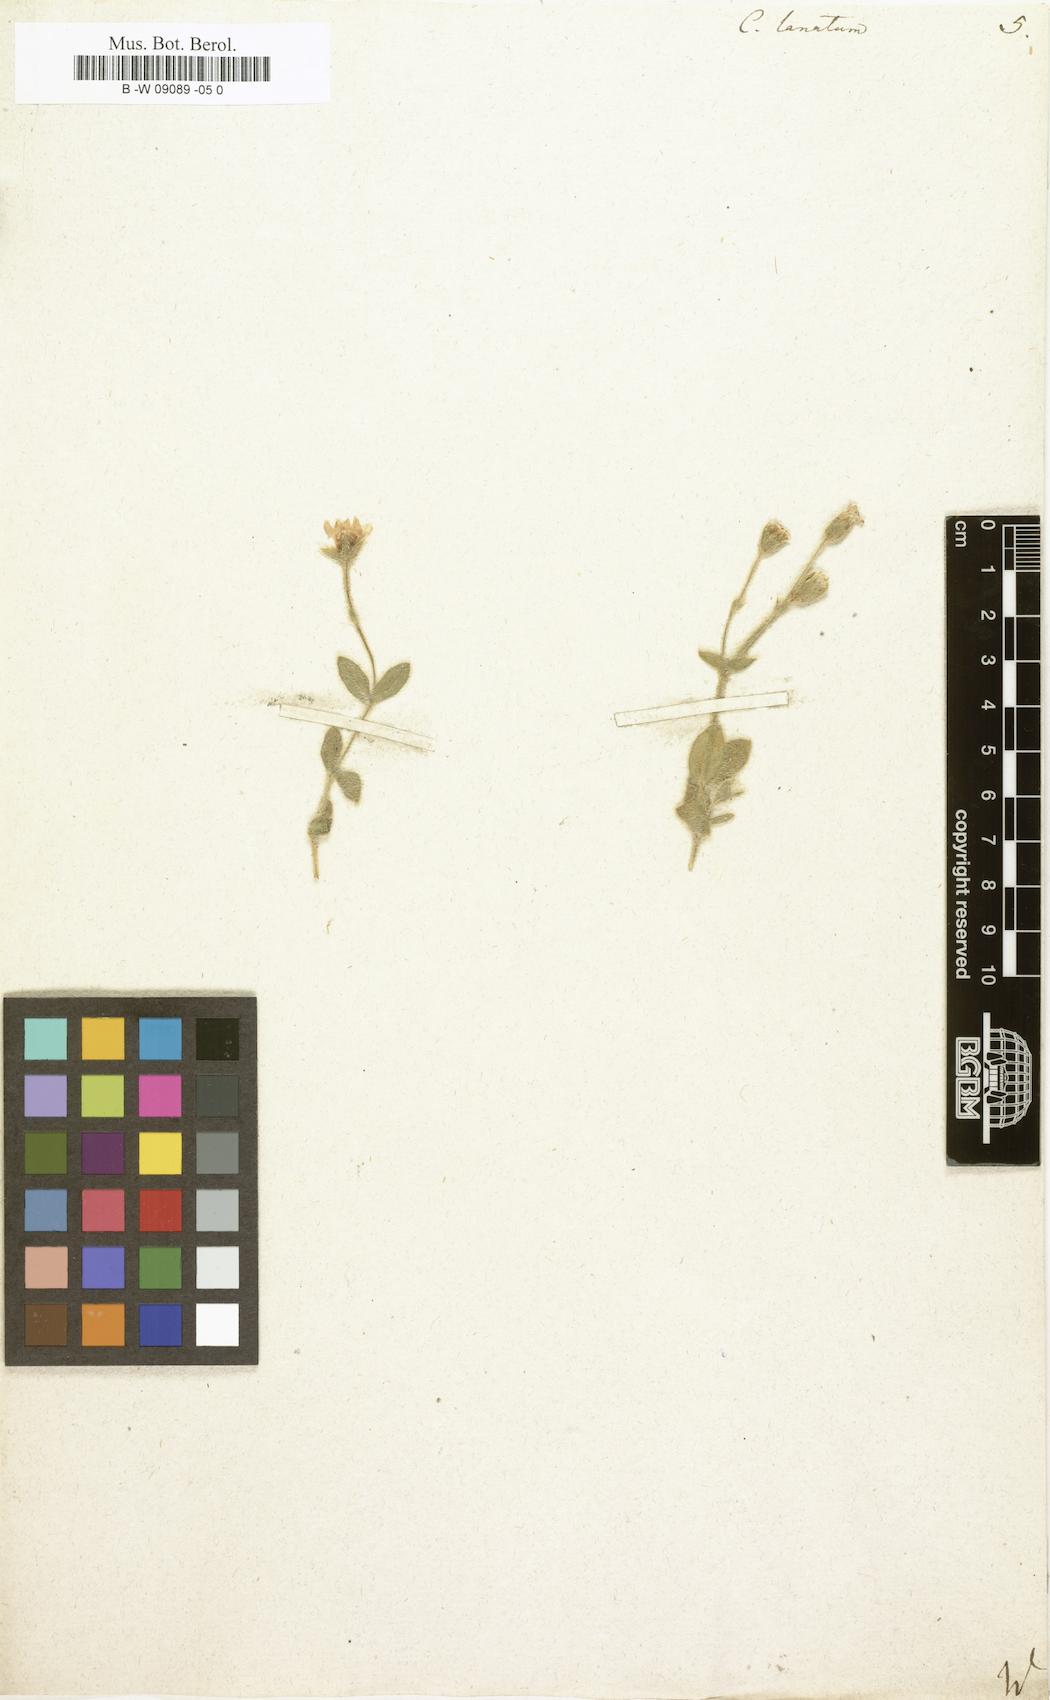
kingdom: Plantae
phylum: Tracheophyta
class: Magnoliopsida
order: Caryophyllales
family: Caryophyllaceae
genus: Cerastium
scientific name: Cerastium alpinum
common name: Alpine mouse-ear
